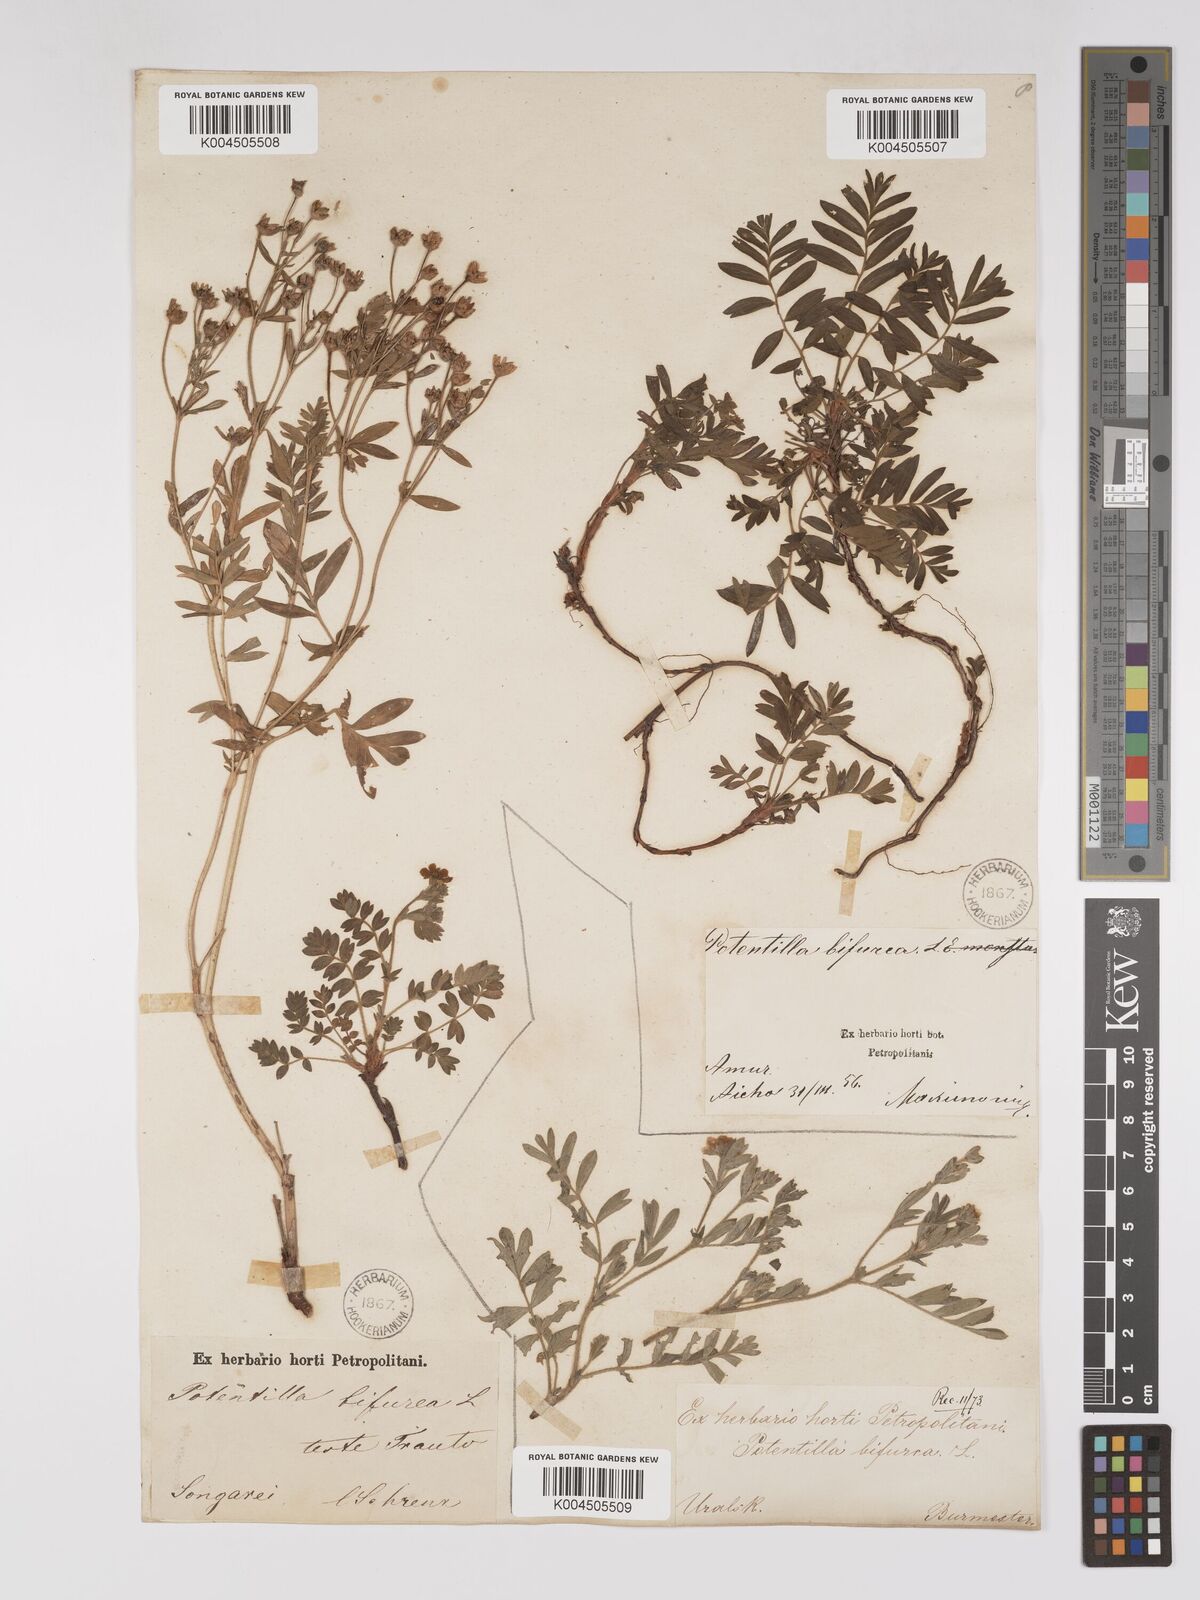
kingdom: Plantae
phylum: Tracheophyta
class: Magnoliopsida
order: Rosales
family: Rosaceae
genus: Sibbaldianthe
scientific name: Sibbaldianthe bifurca
